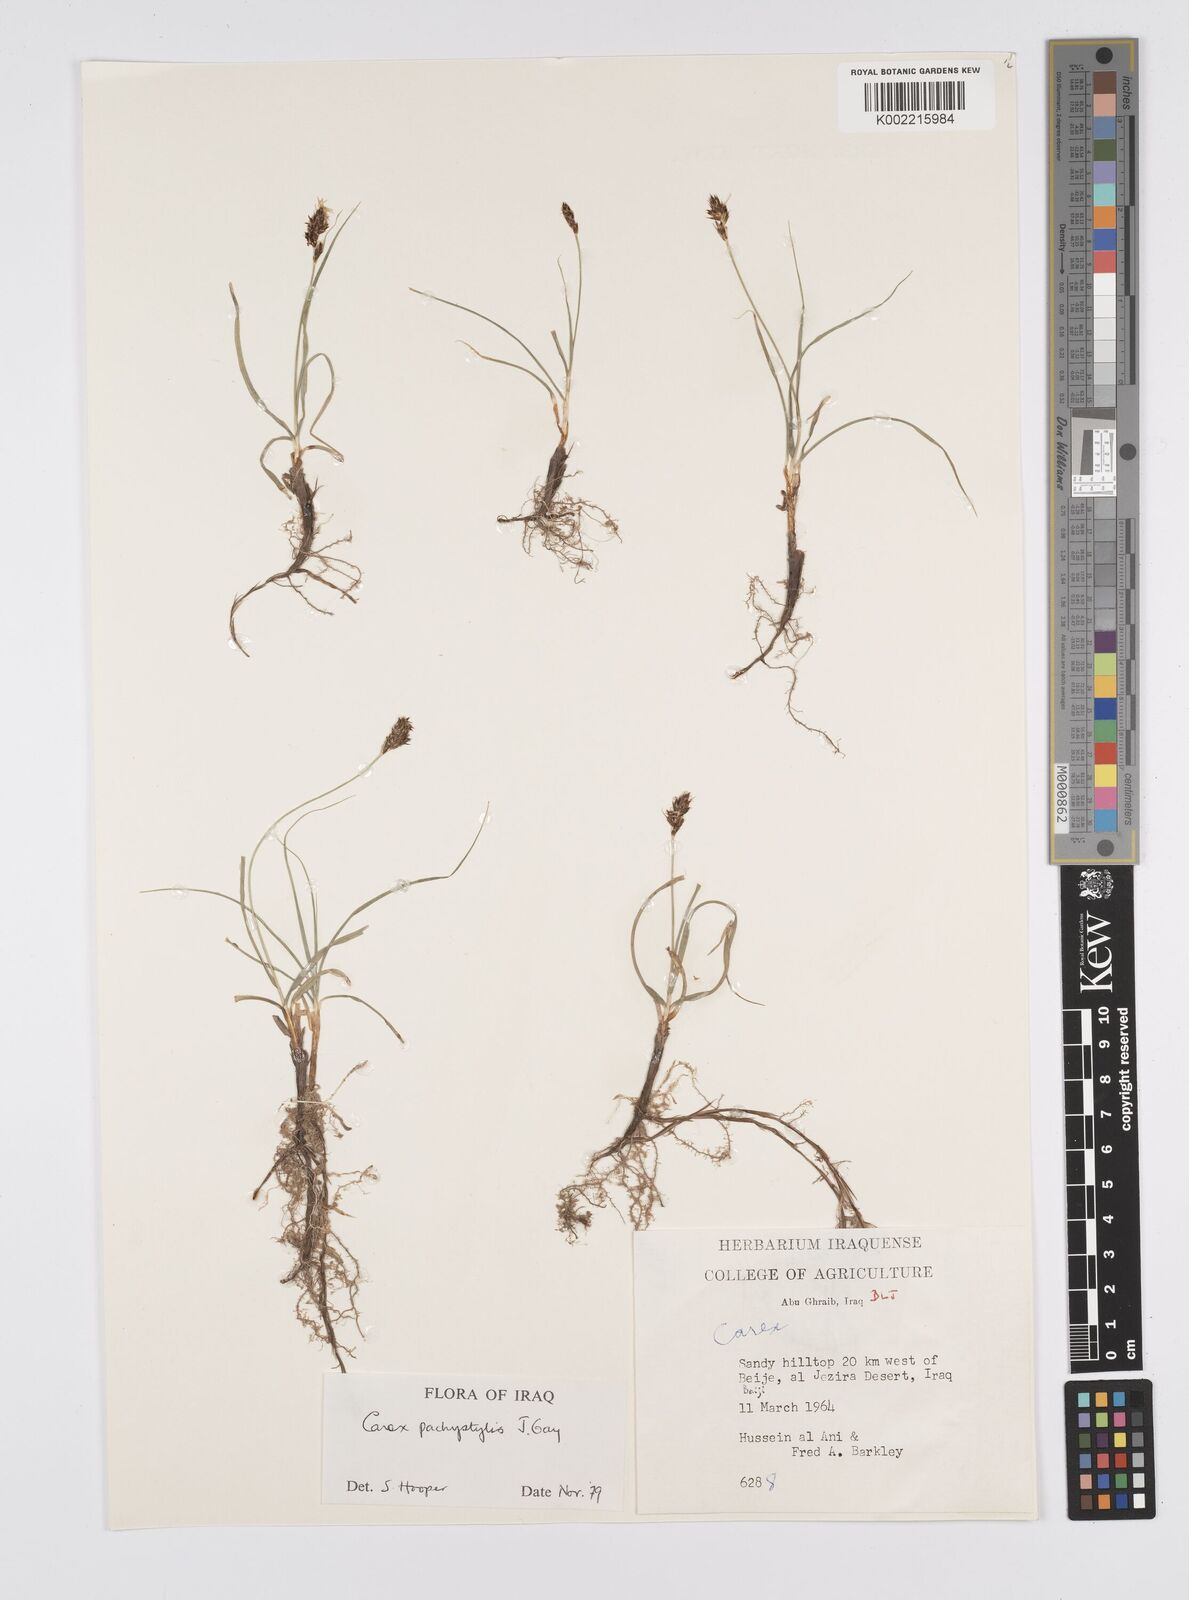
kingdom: Plantae
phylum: Tracheophyta
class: Liliopsida
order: Poales
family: Cyperaceae
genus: Carex
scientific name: Carex pachystylis
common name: Thick-stem sedge
